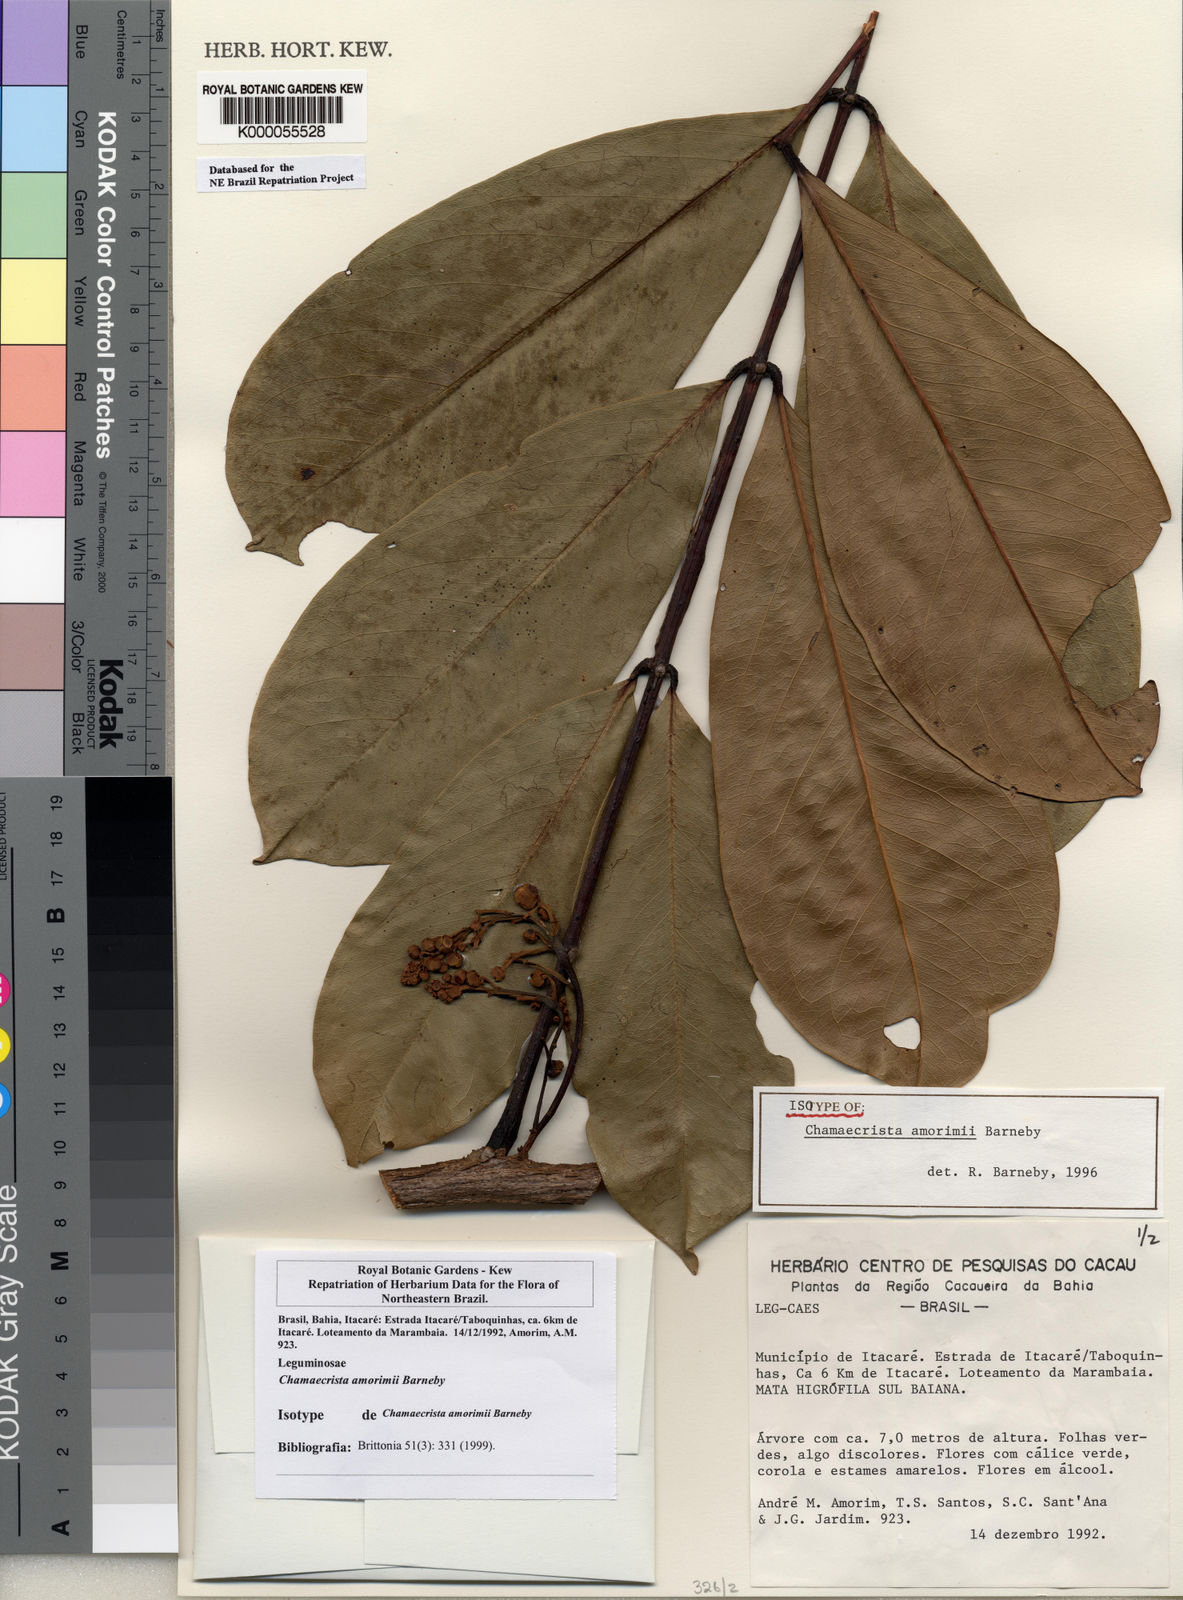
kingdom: Plantae
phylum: Tracheophyta
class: Magnoliopsida
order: Fabales
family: Fabaceae
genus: Chamaecrista
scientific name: Chamaecrista amorimii
